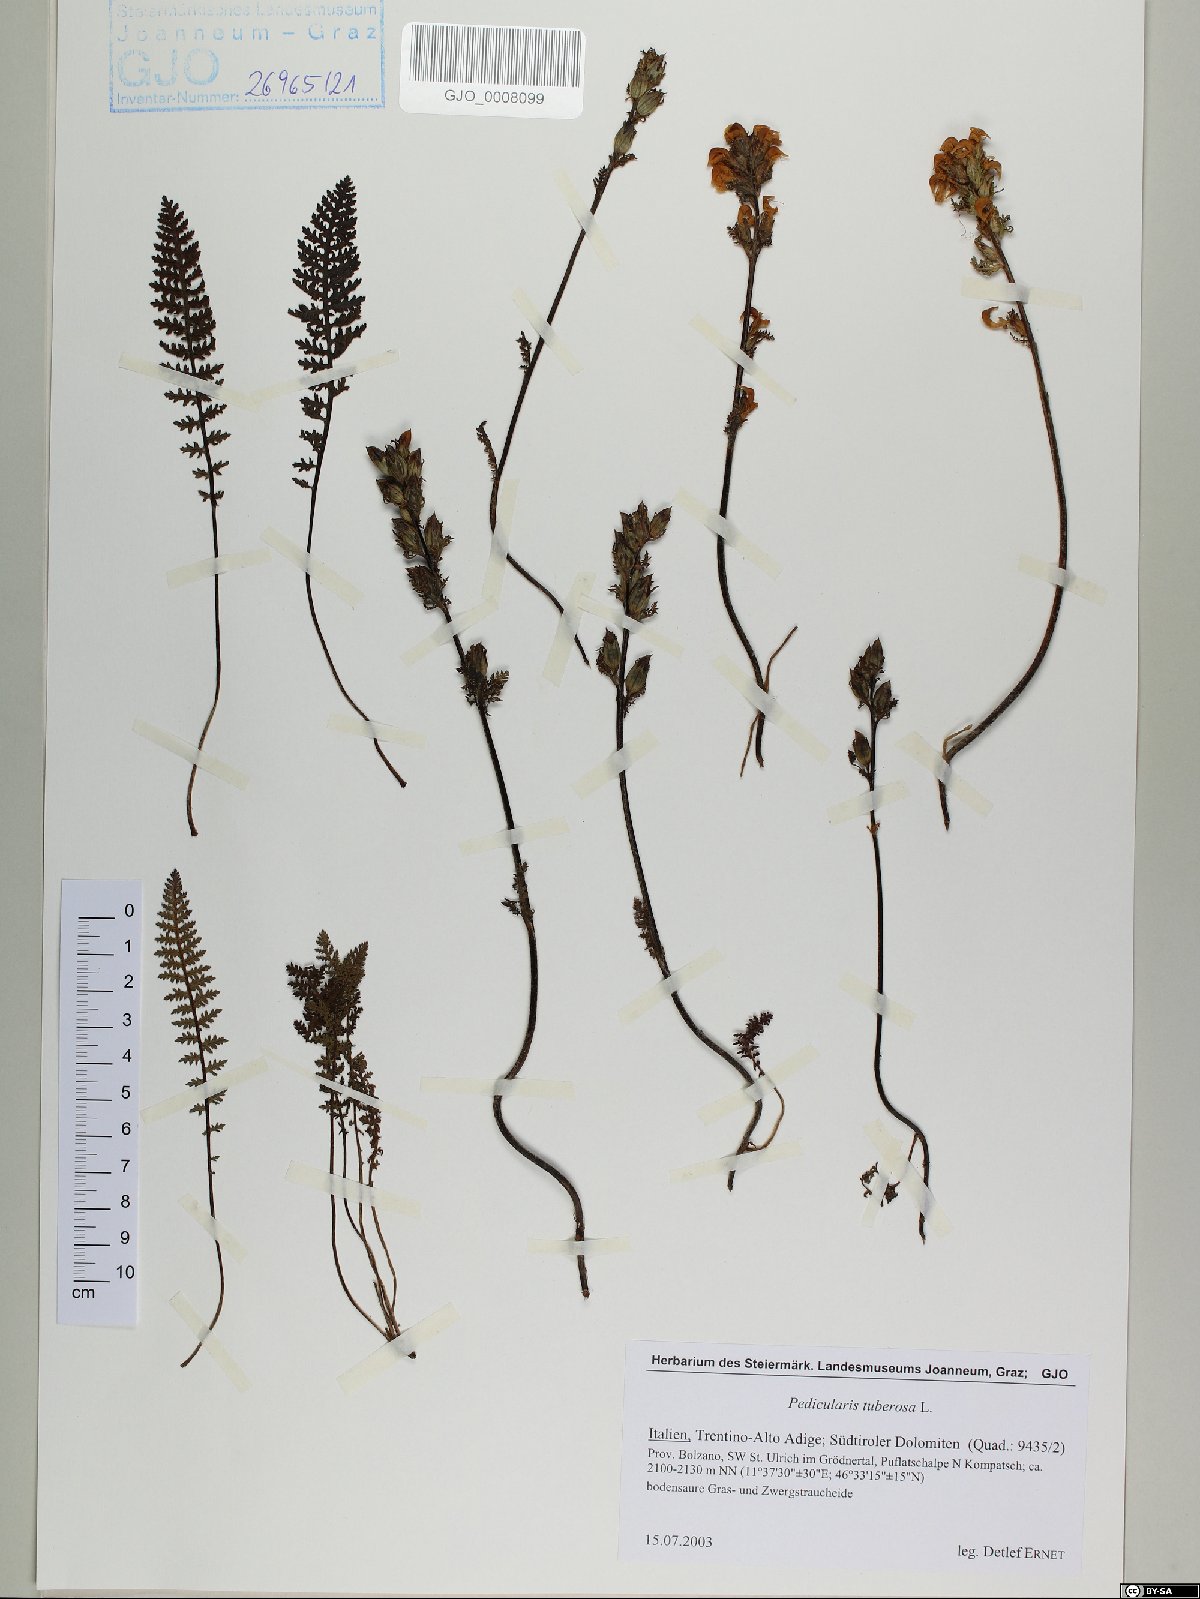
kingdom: Plantae
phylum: Tracheophyta
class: Magnoliopsida
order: Lamiales
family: Orobanchaceae
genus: Pedicularis
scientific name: Pedicularis tuberosa
